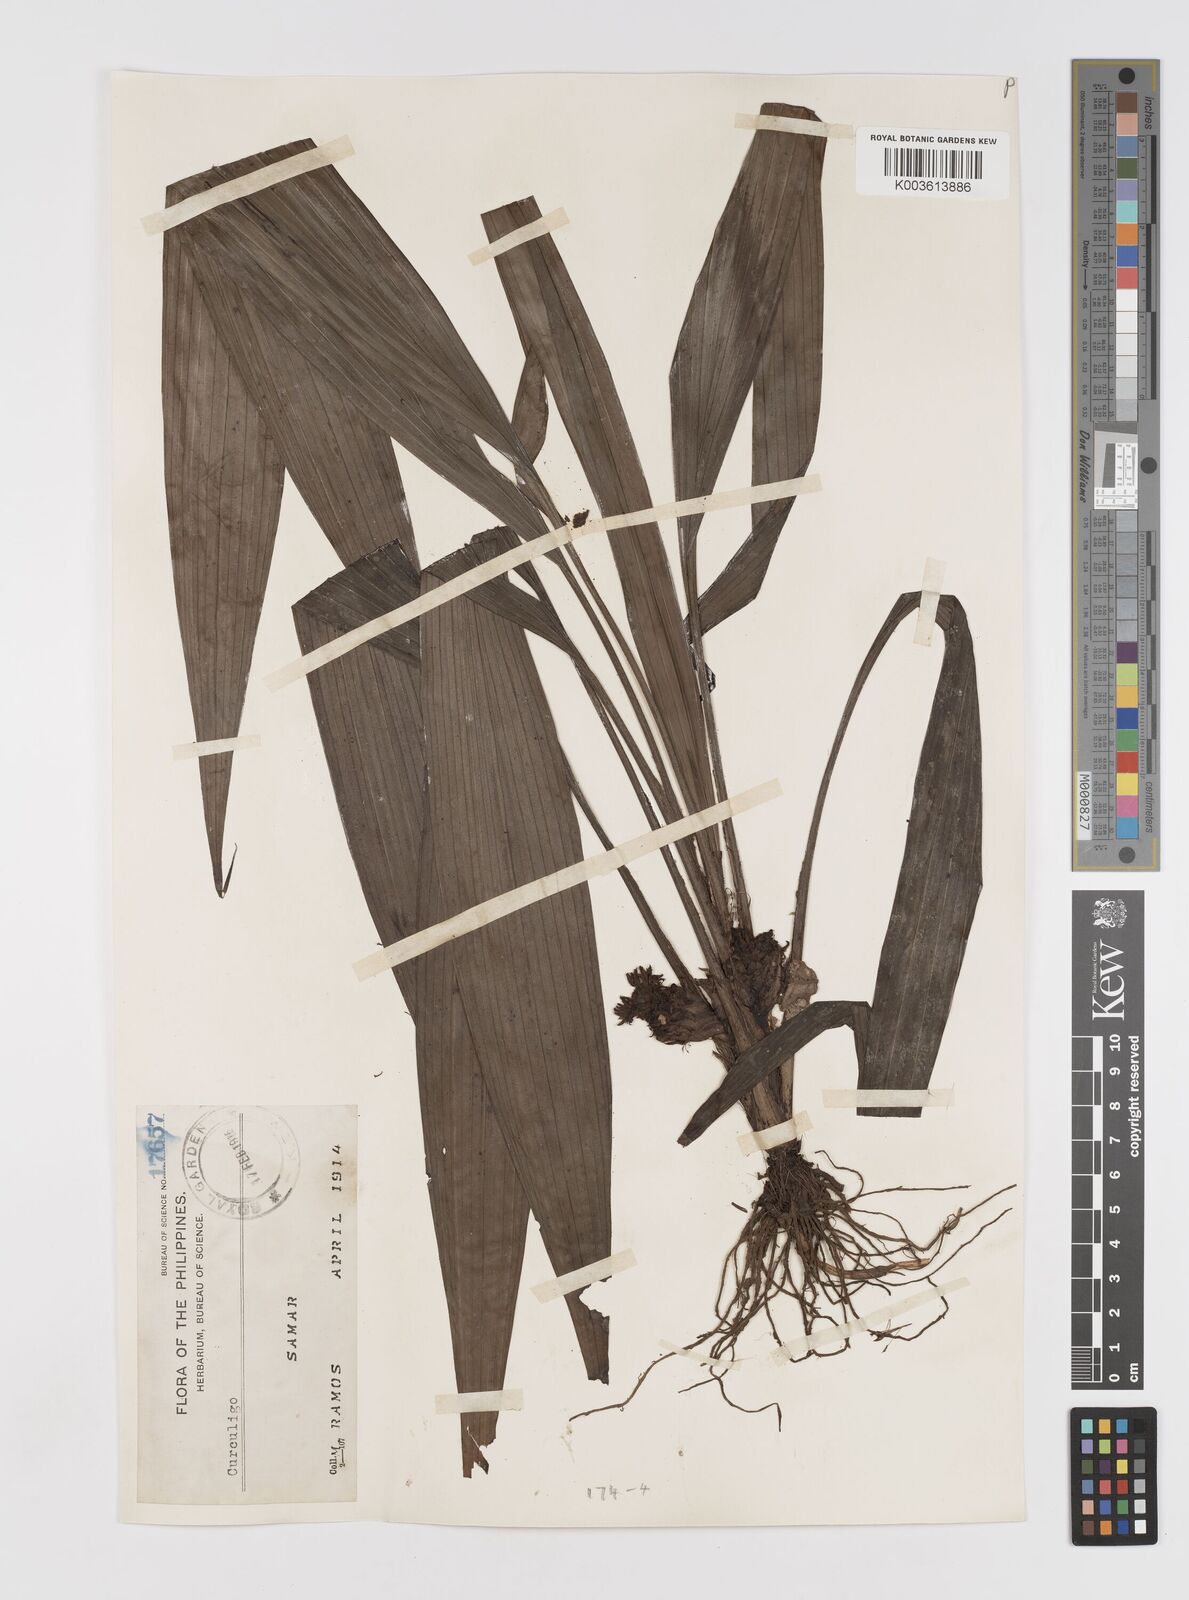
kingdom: Plantae
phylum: Tracheophyta
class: Liliopsida
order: Asparagales
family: Hypoxidaceae
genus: Curculigo
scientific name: Curculigo capitulata
